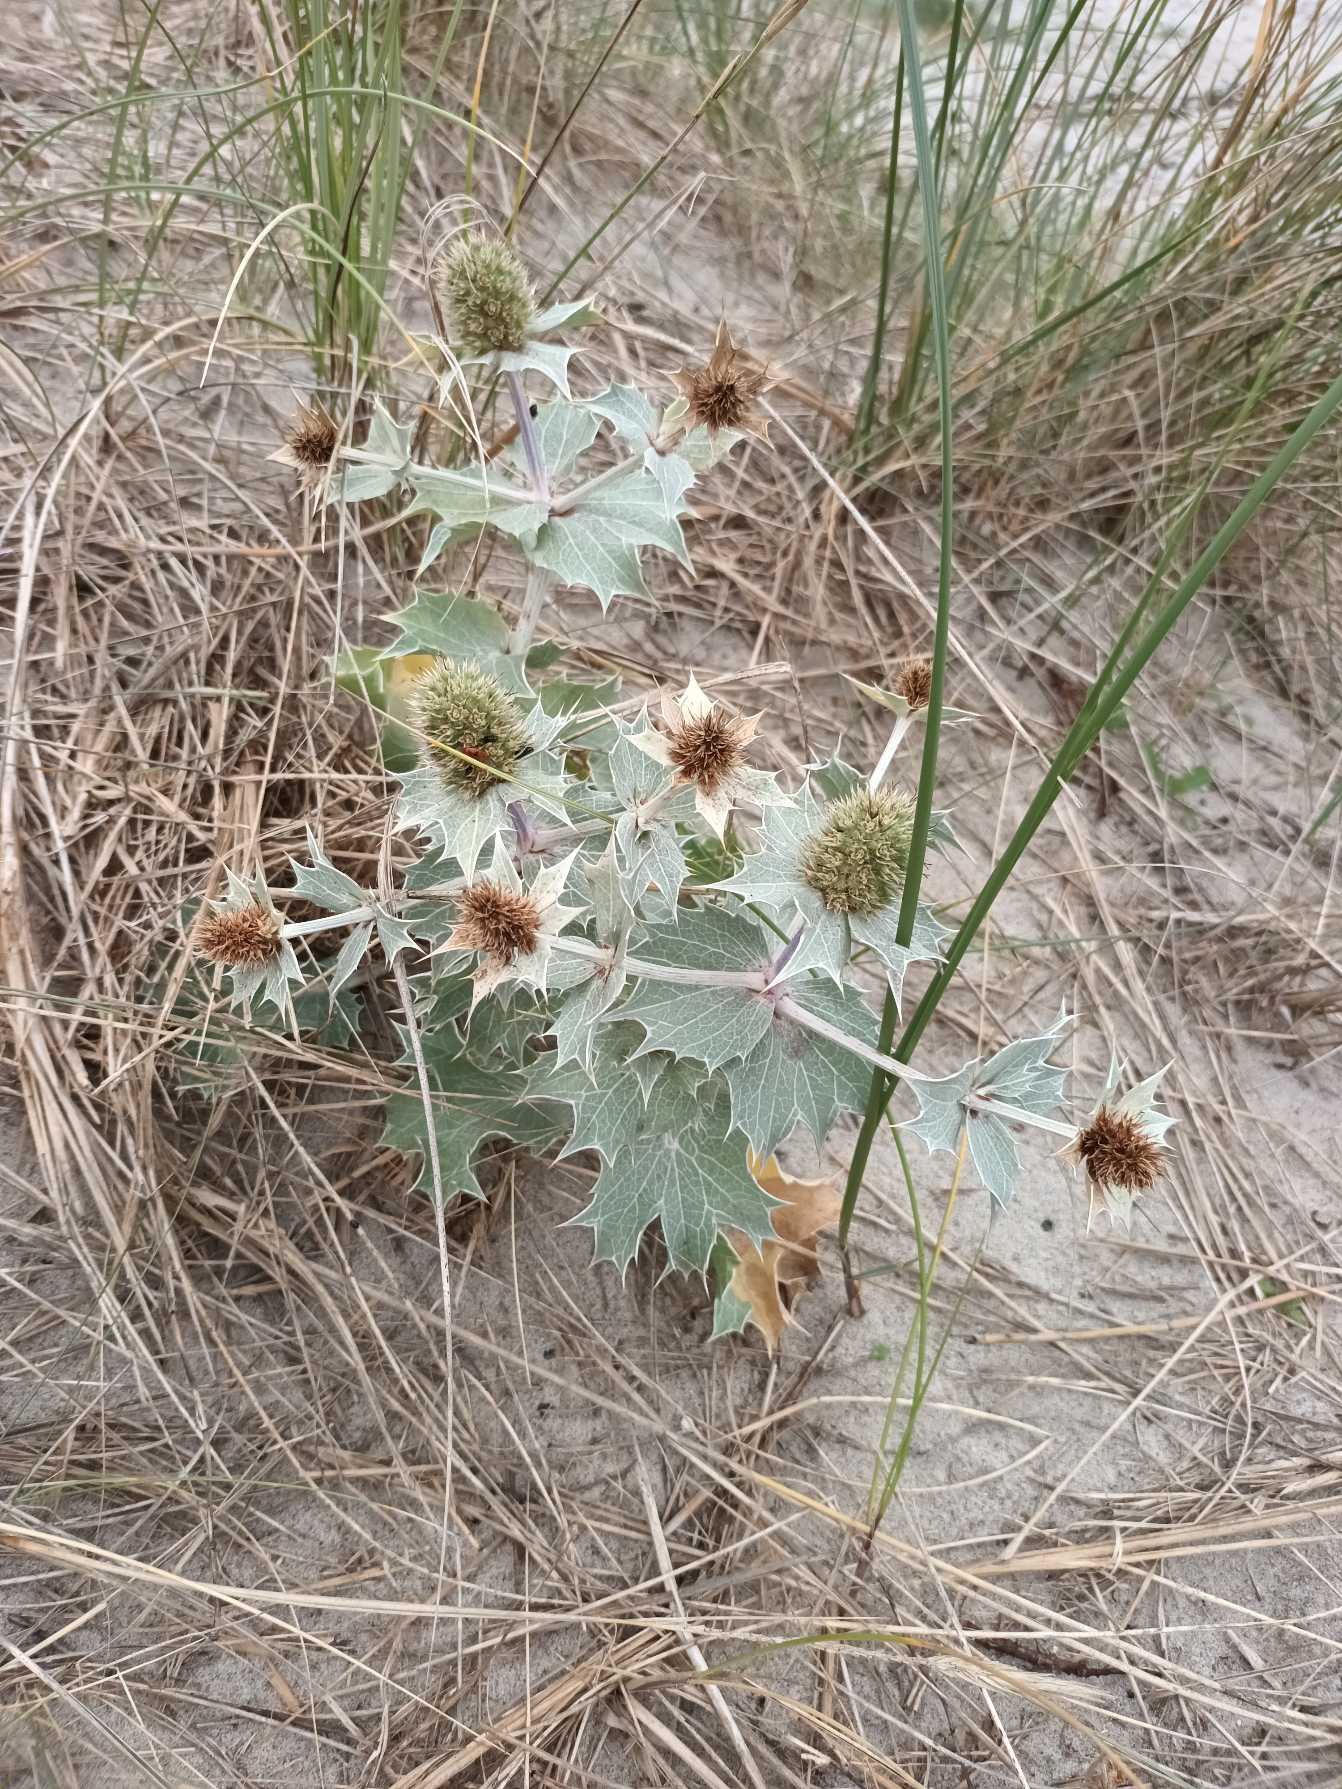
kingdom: Plantae
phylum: Tracheophyta
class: Magnoliopsida
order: Apiales
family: Apiaceae
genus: Eryngium
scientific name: Eryngium maritimum
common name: Strand-mandstro
